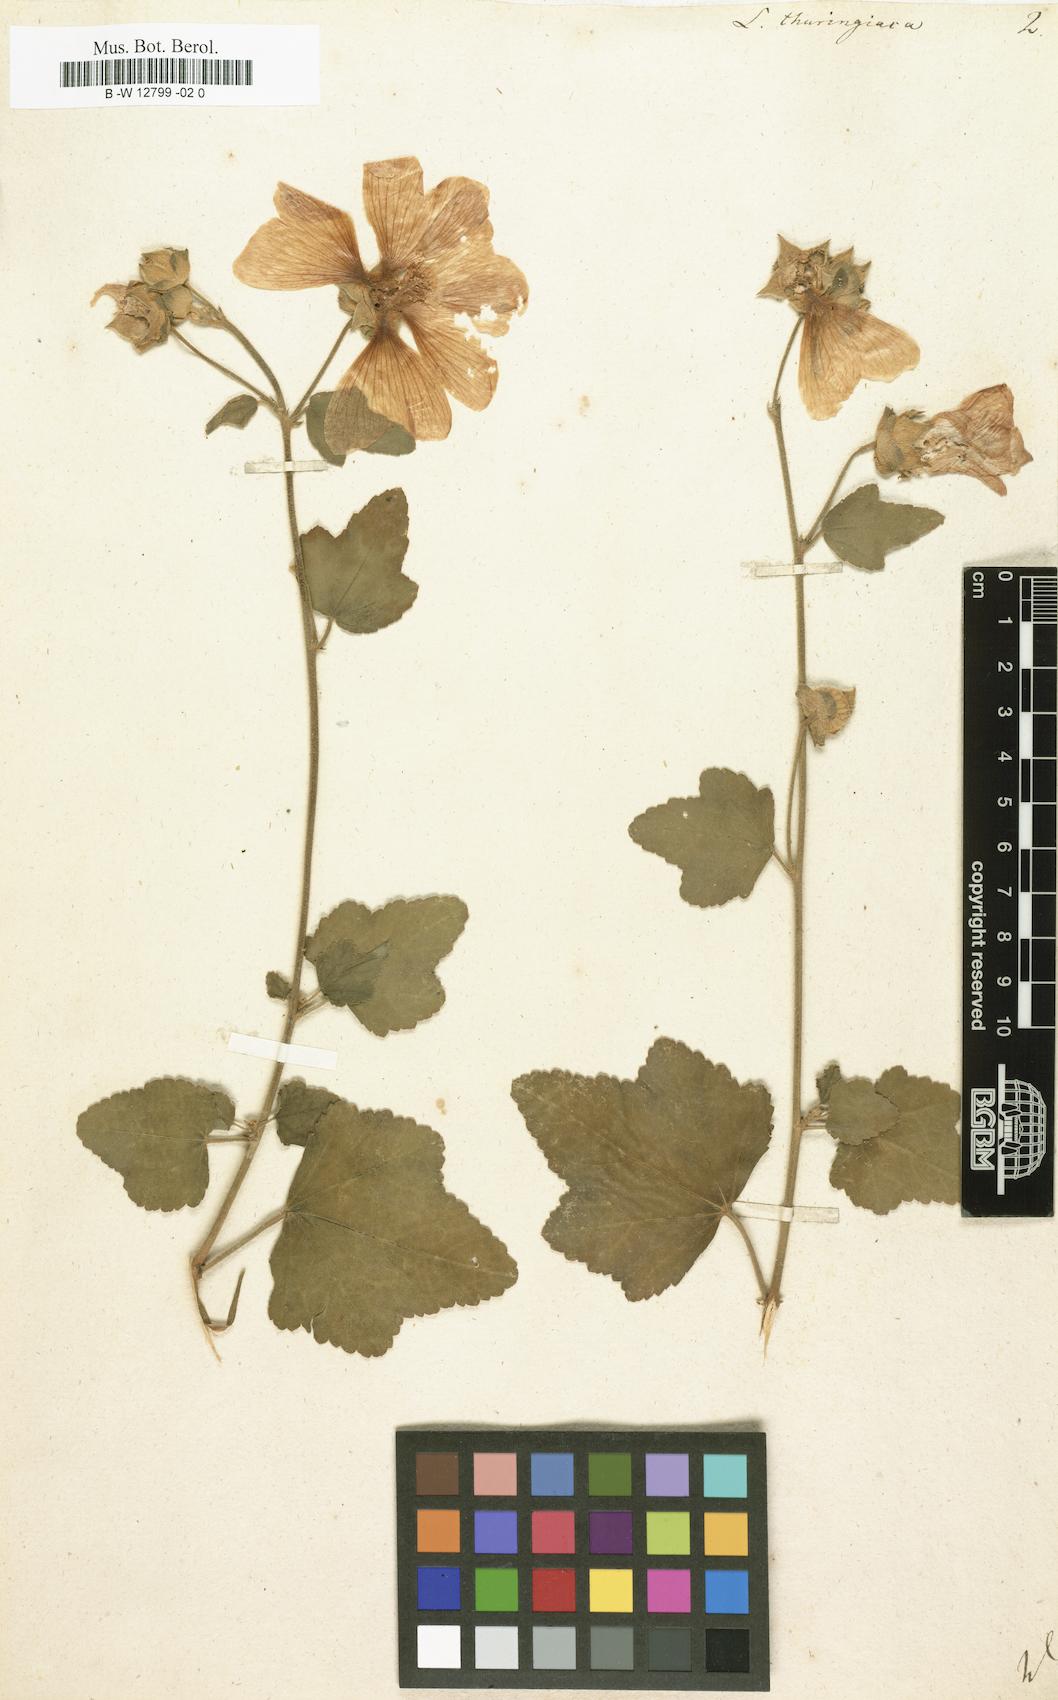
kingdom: Plantae
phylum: Tracheophyta
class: Magnoliopsida
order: Malvales
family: Malvaceae
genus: Malva
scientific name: Malva thuringiaca
